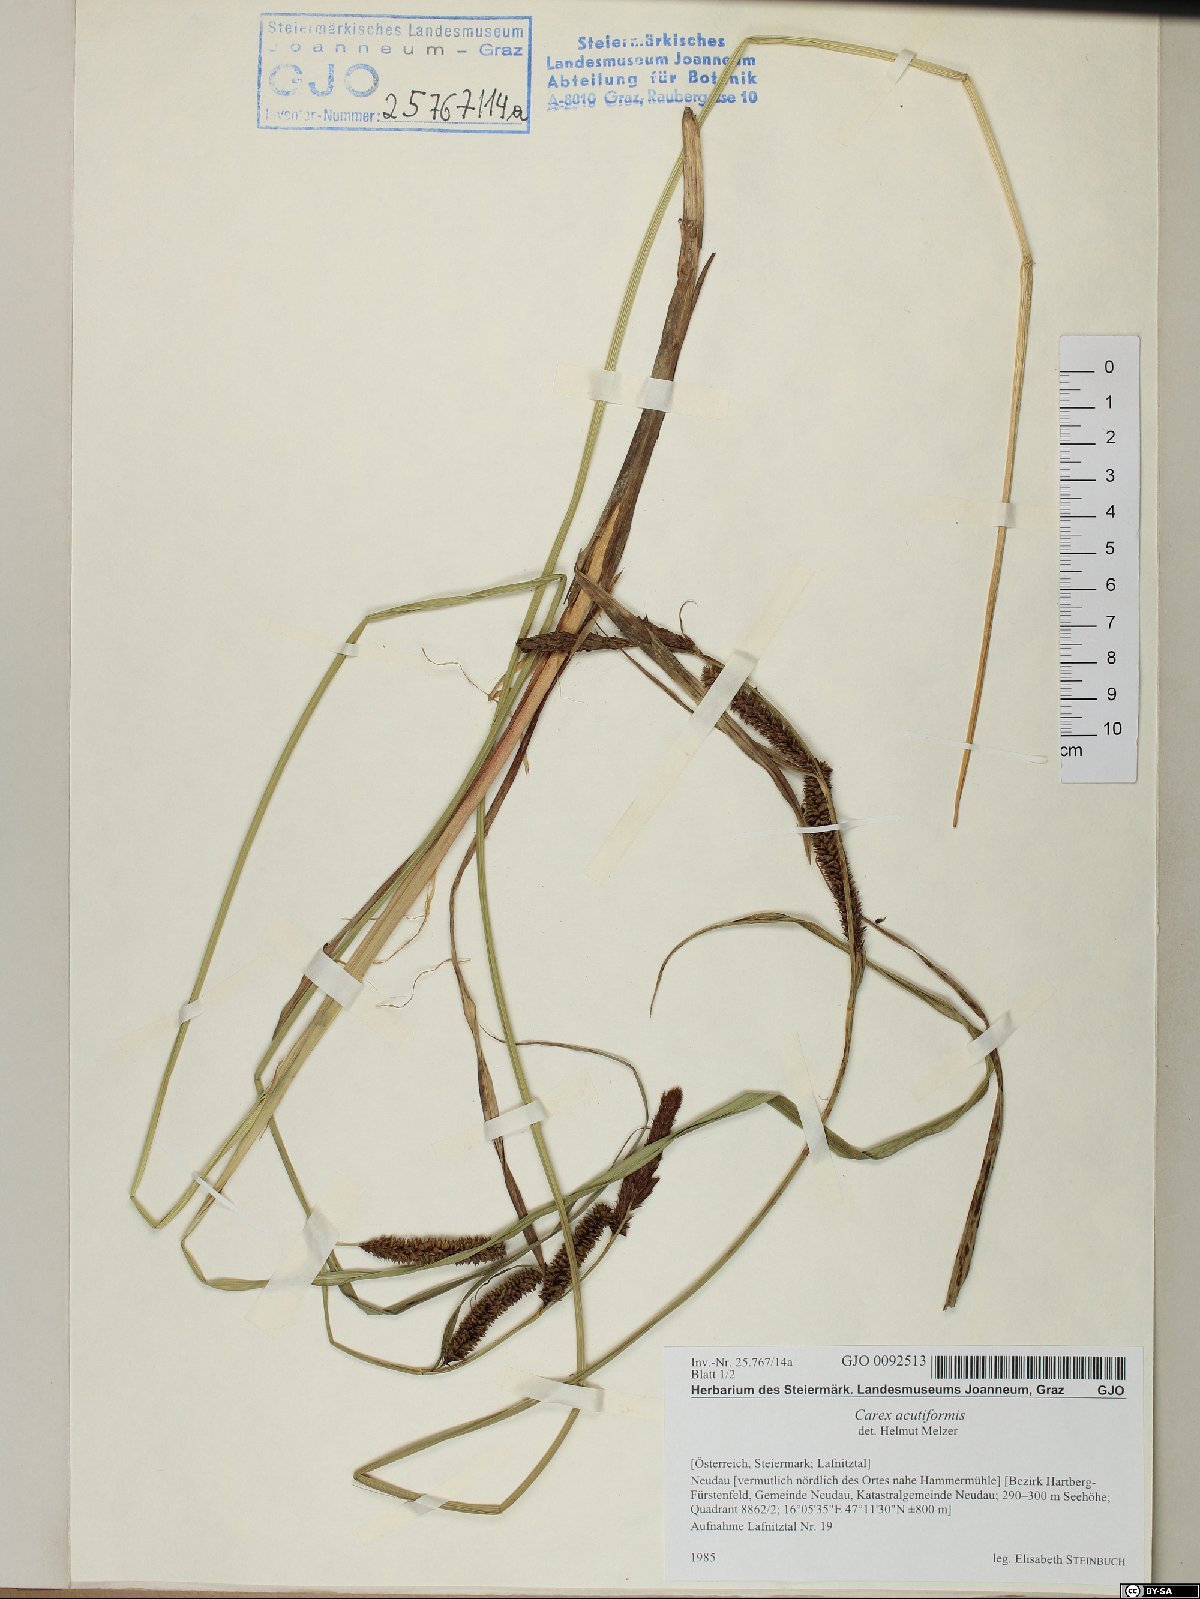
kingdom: Plantae
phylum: Tracheophyta
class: Liliopsida
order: Poales
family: Cyperaceae
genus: Carex
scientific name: Carex acutiformis
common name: Lesser pond-sedge
